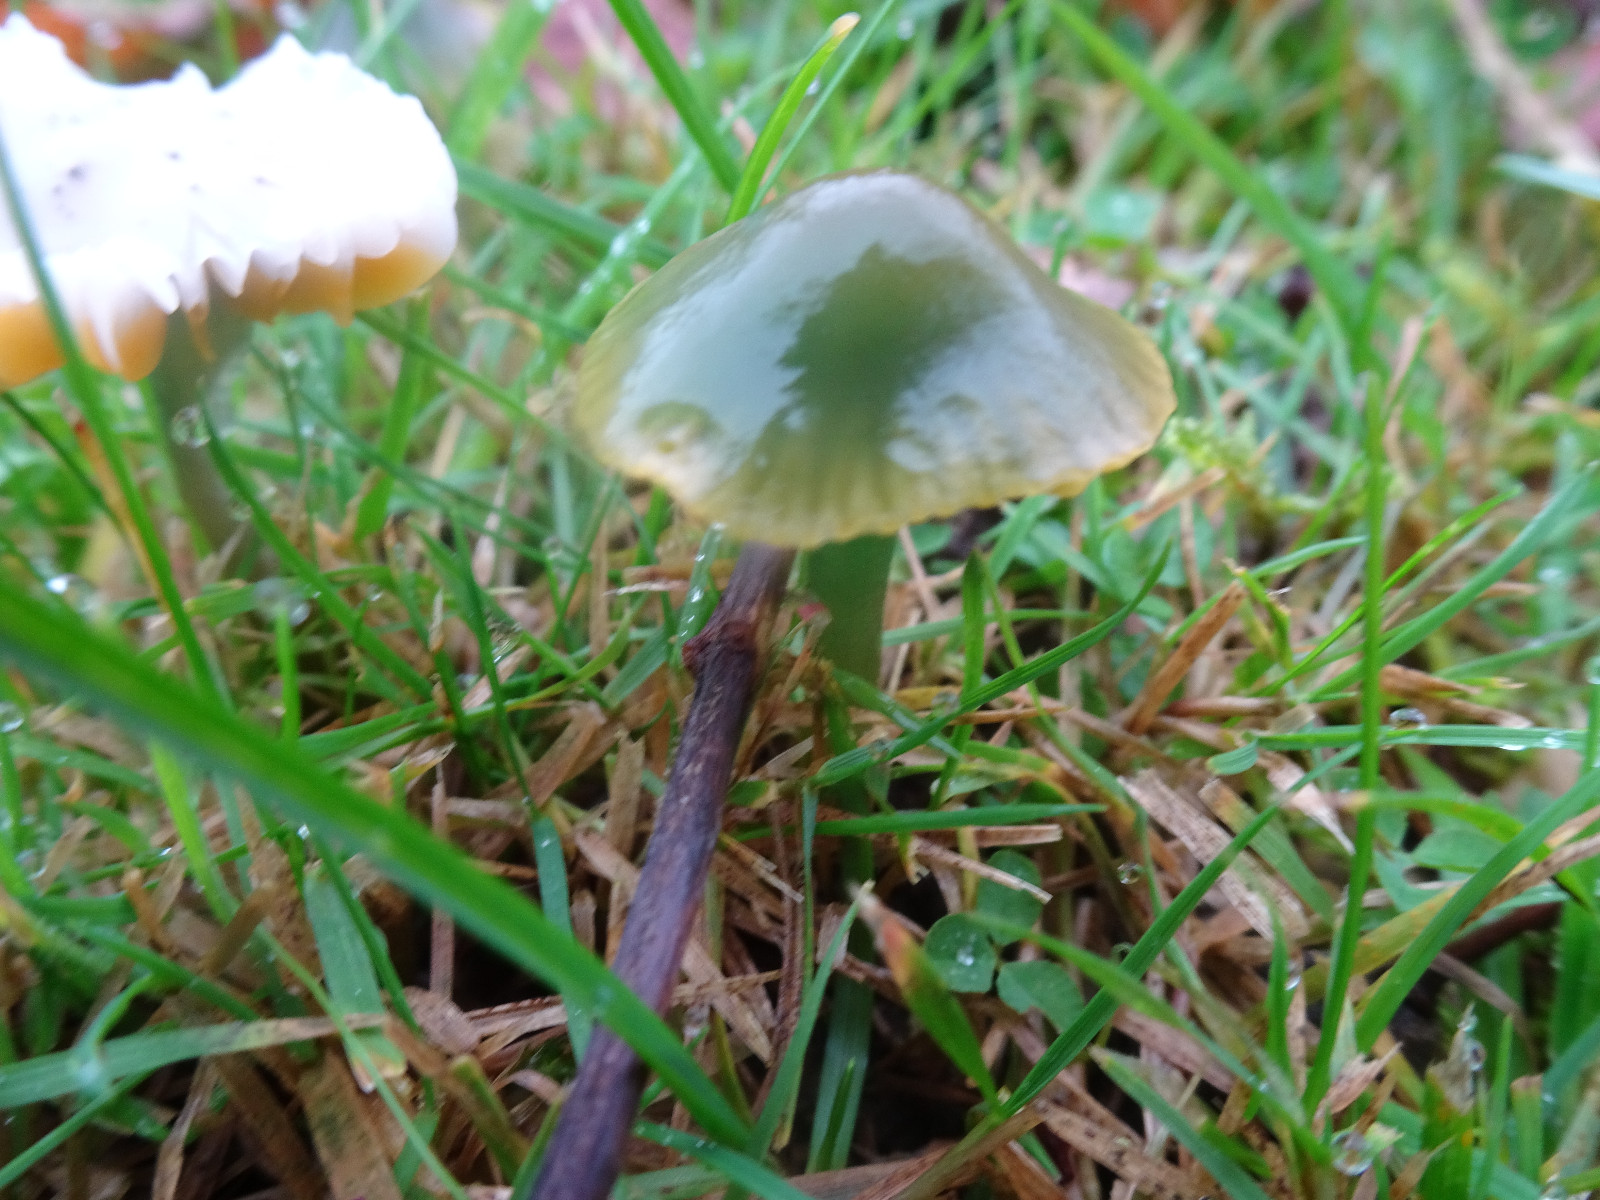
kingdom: Fungi
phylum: Basidiomycota
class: Agaricomycetes
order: Agaricales
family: Hygrophoraceae
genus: Gliophorus
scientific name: Gliophorus psittacinus
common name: papegøje-vokshat
